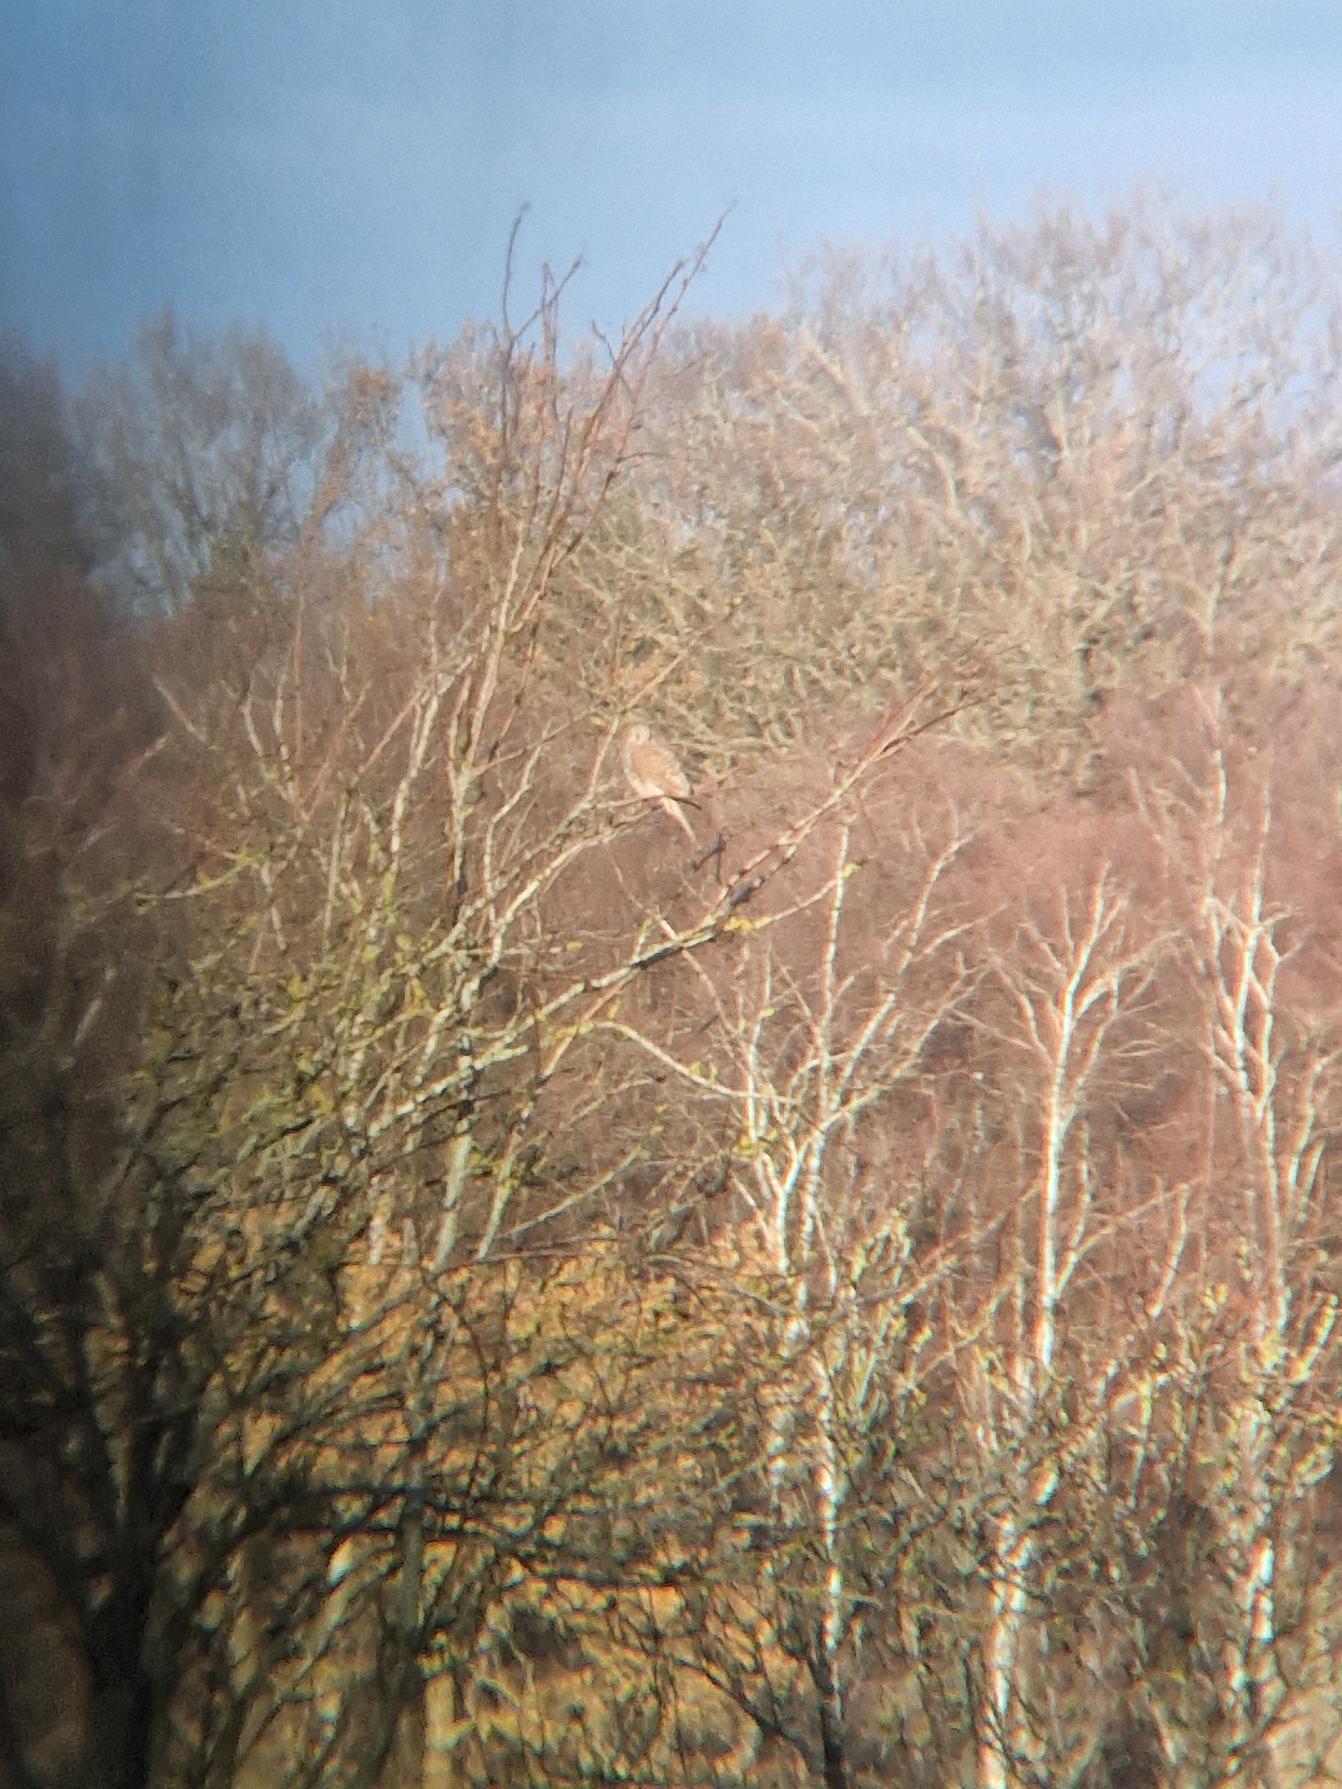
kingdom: Animalia
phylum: Chordata
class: Aves
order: Falconiformes
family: Falconidae
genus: Falco
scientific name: Falco tinnunculus
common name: Tårnfalk
